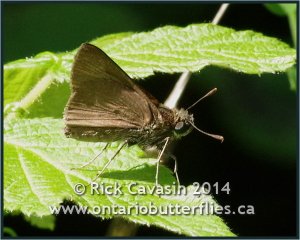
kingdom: Animalia
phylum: Arthropoda
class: Insecta
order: Lepidoptera
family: Hesperiidae
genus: Euphyes
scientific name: Euphyes vestris
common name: Dun Skipper
